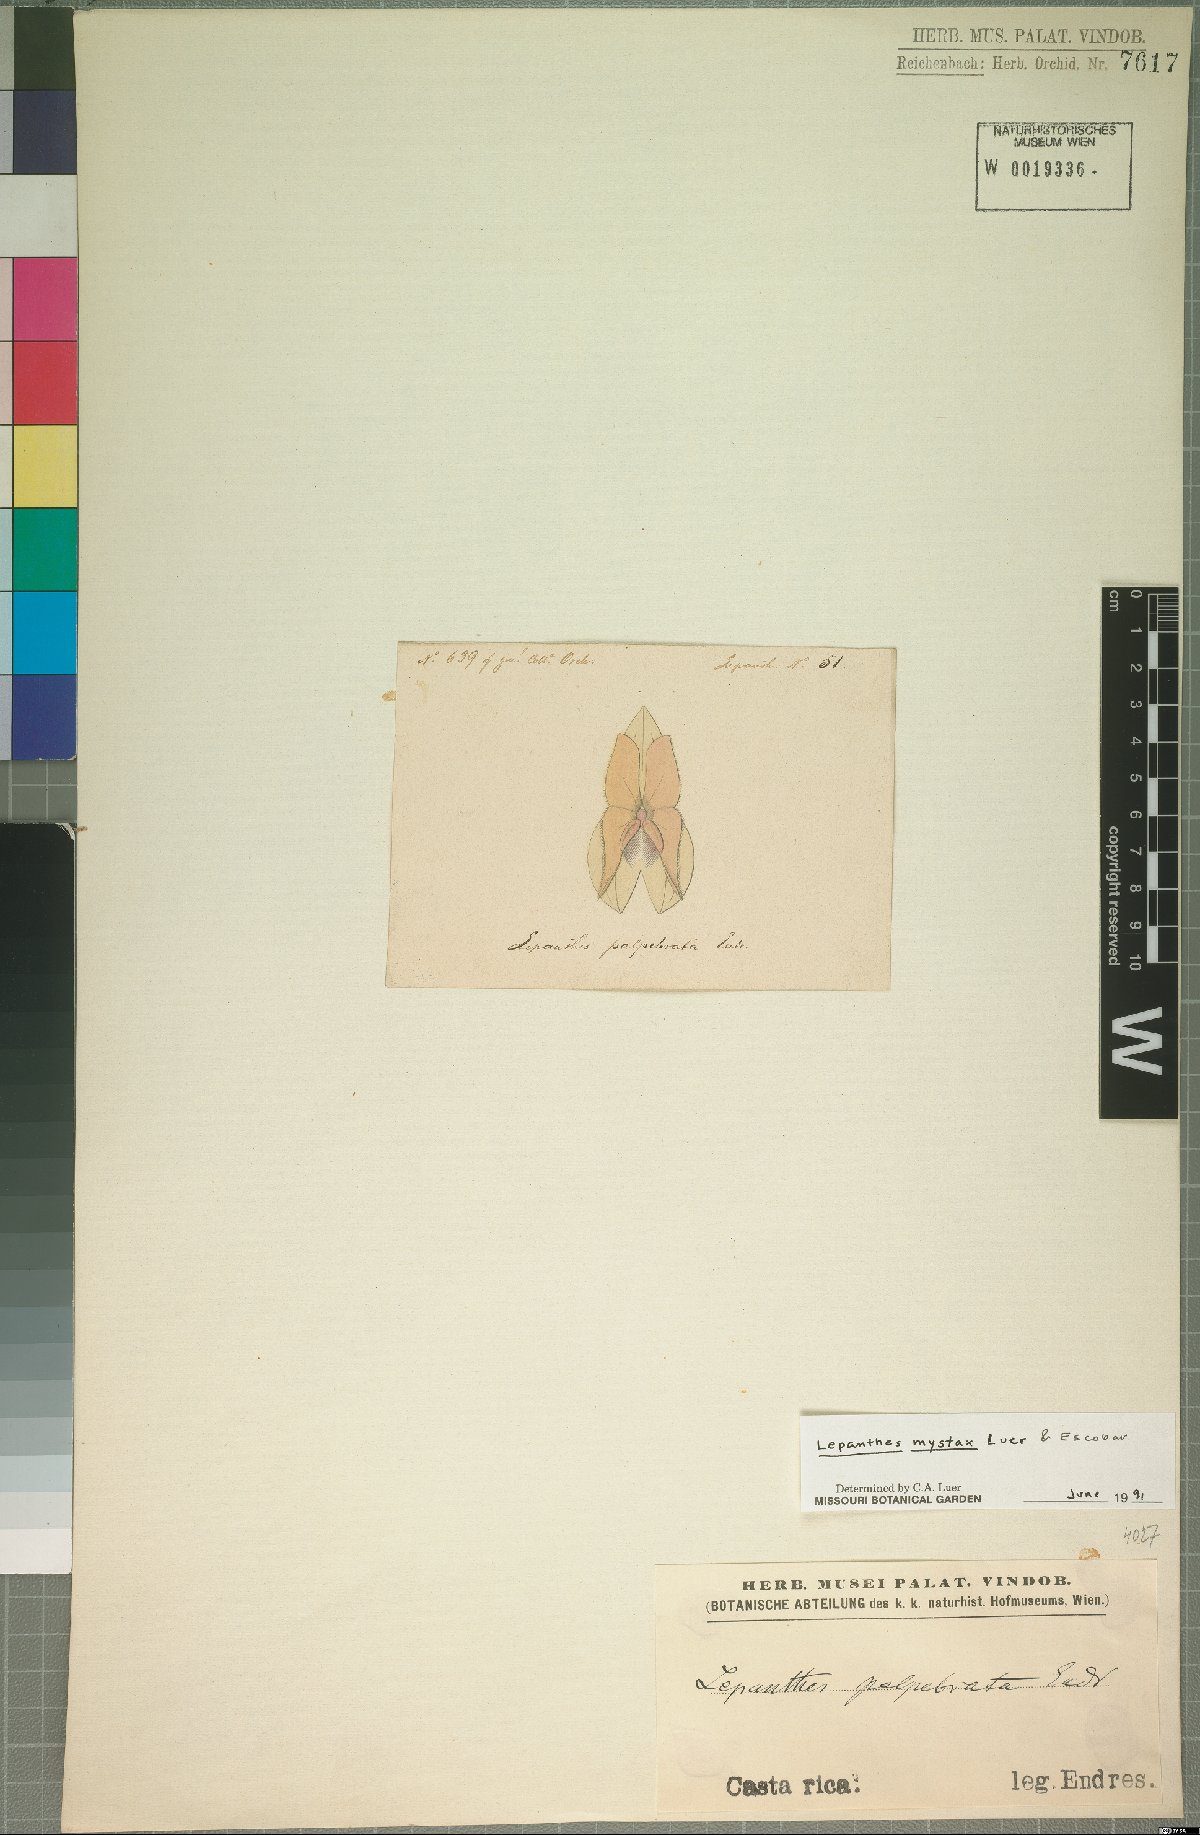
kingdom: Plantae
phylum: Tracheophyta
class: Liliopsida
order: Asparagales
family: Orchidaceae
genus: Lepanthes
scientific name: Lepanthes mystax
